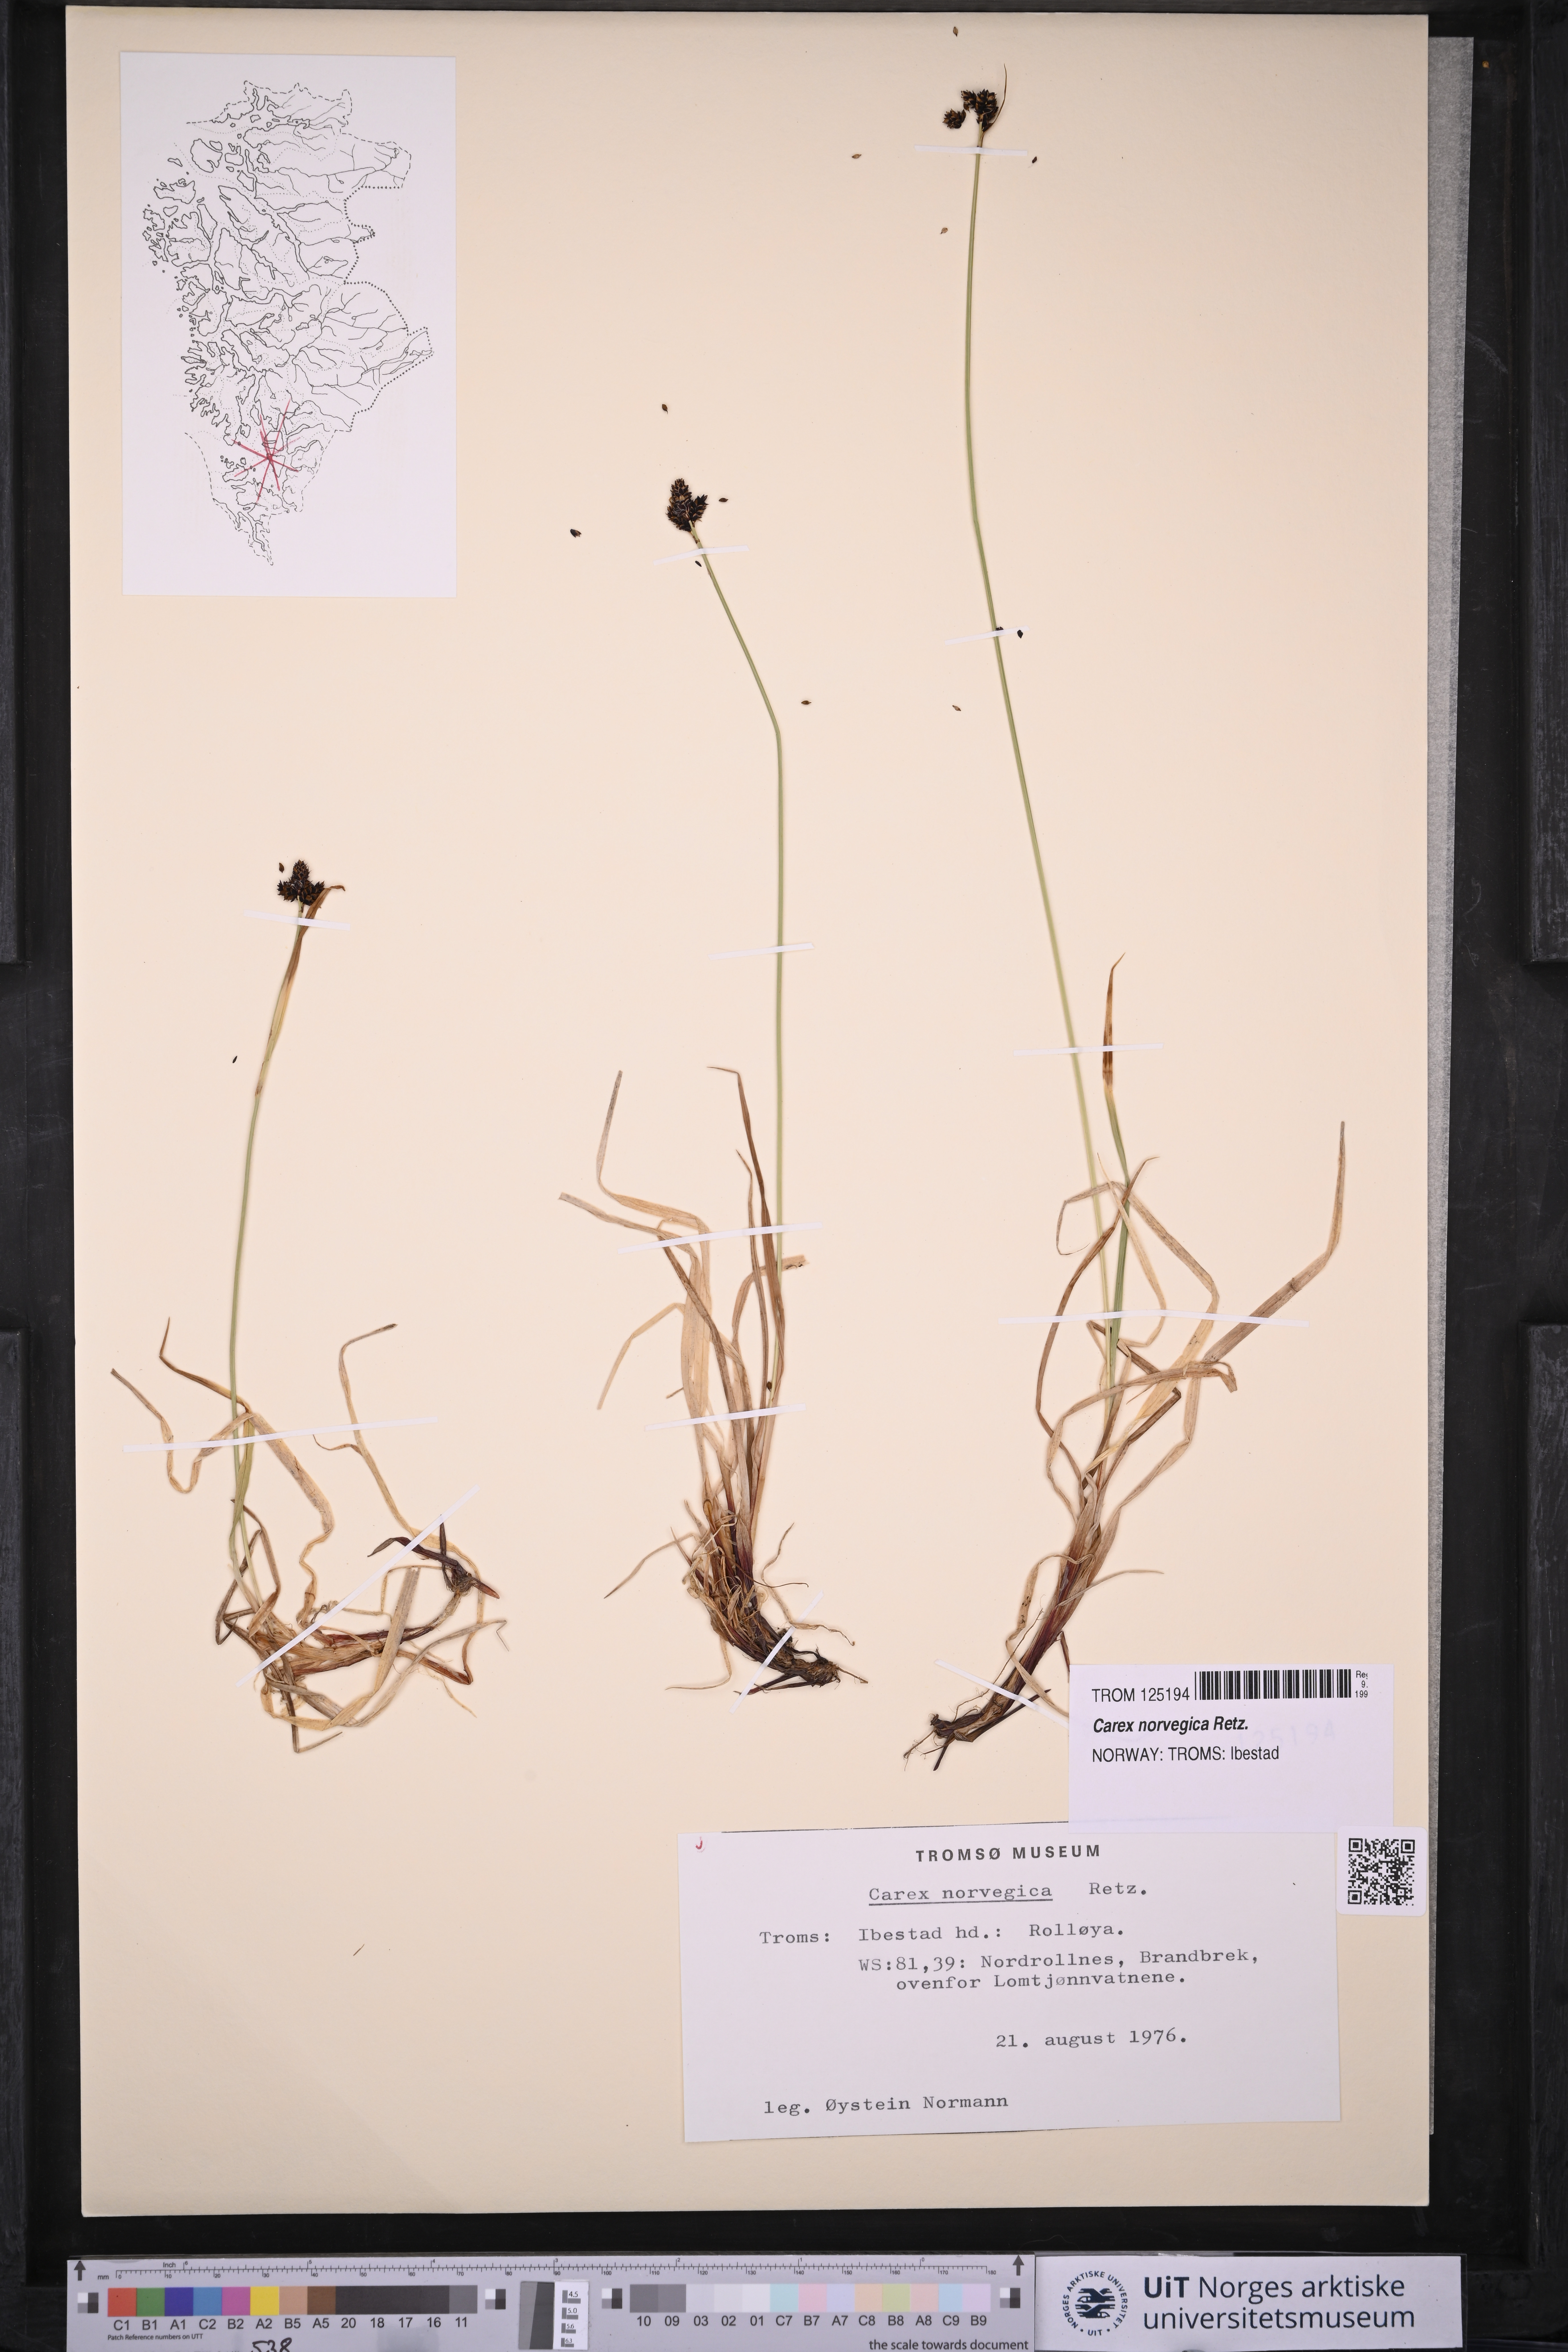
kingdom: Plantae
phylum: Tracheophyta
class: Liliopsida
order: Poales
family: Cyperaceae
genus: Carex
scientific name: Carex norvegica
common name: Close-headed alpine-sedge
